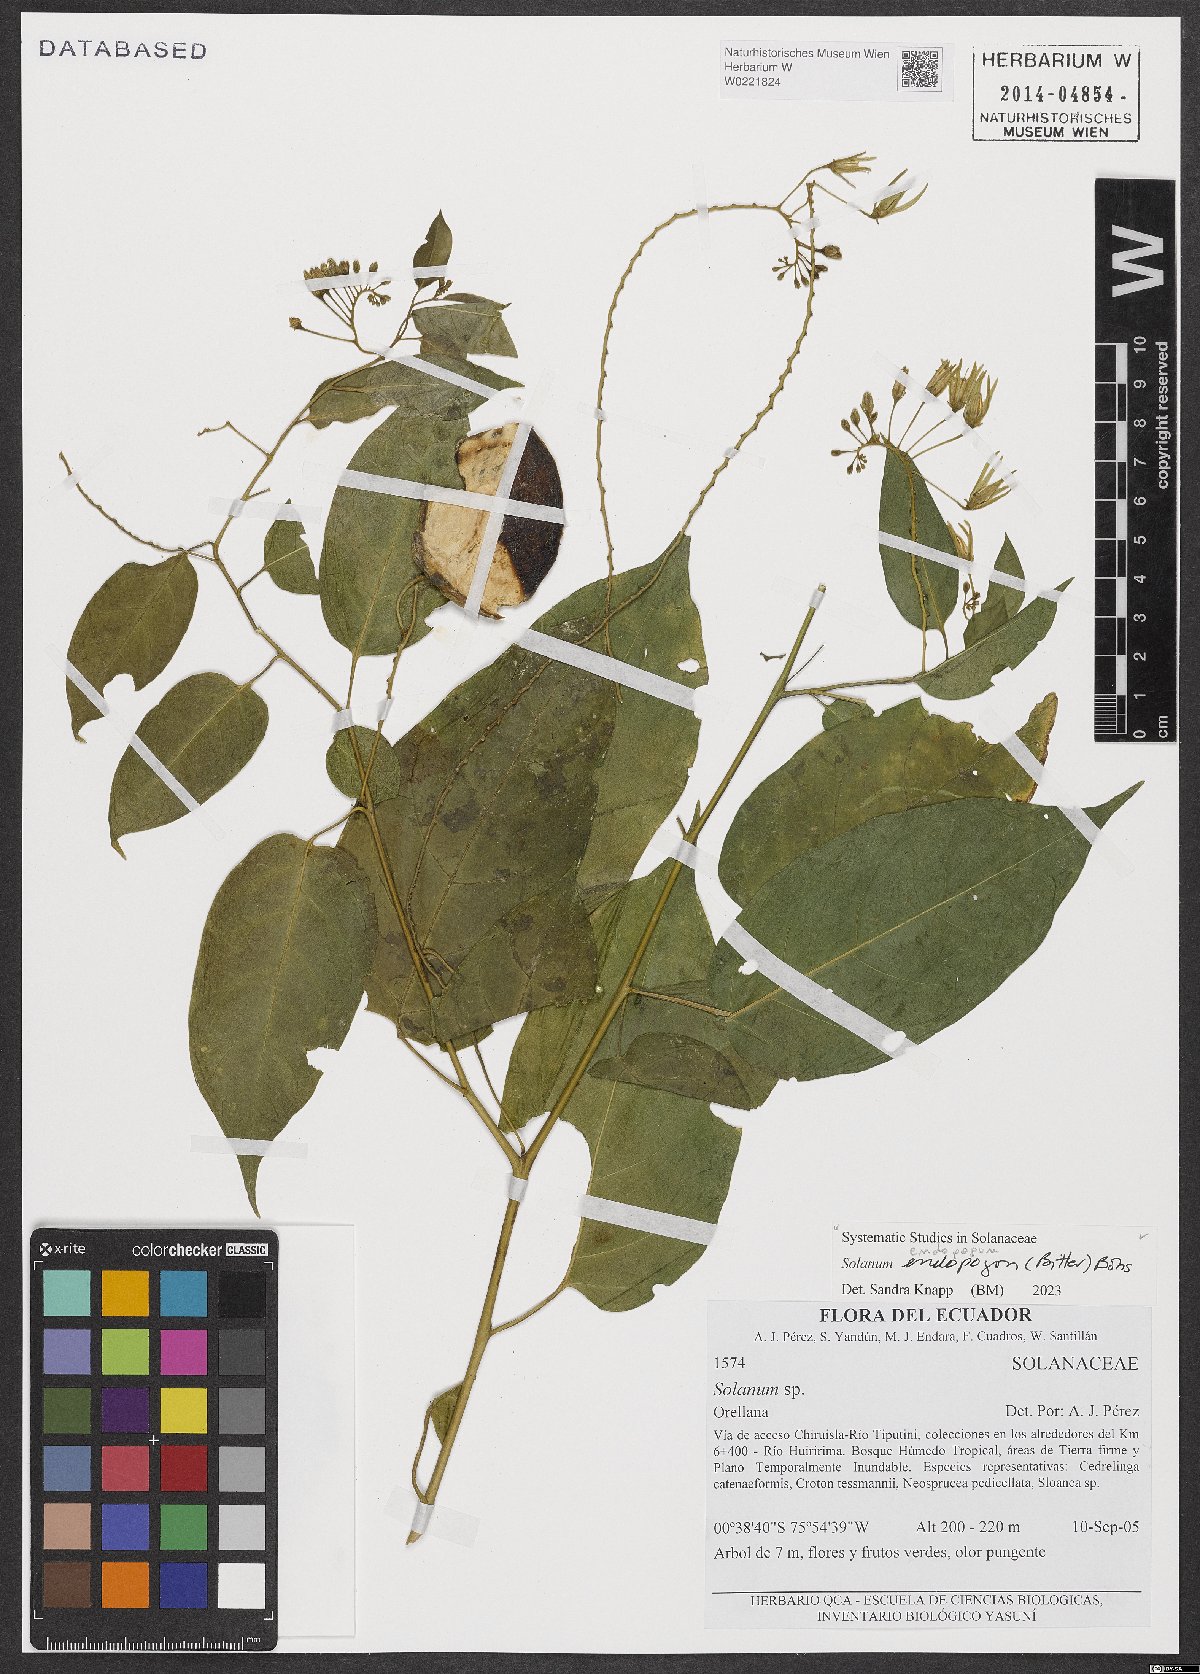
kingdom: Plantae
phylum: Tracheophyta
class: Magnoliopsida
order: Solanales
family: Solanaceae
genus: Solanum
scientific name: Solanum endopogon
